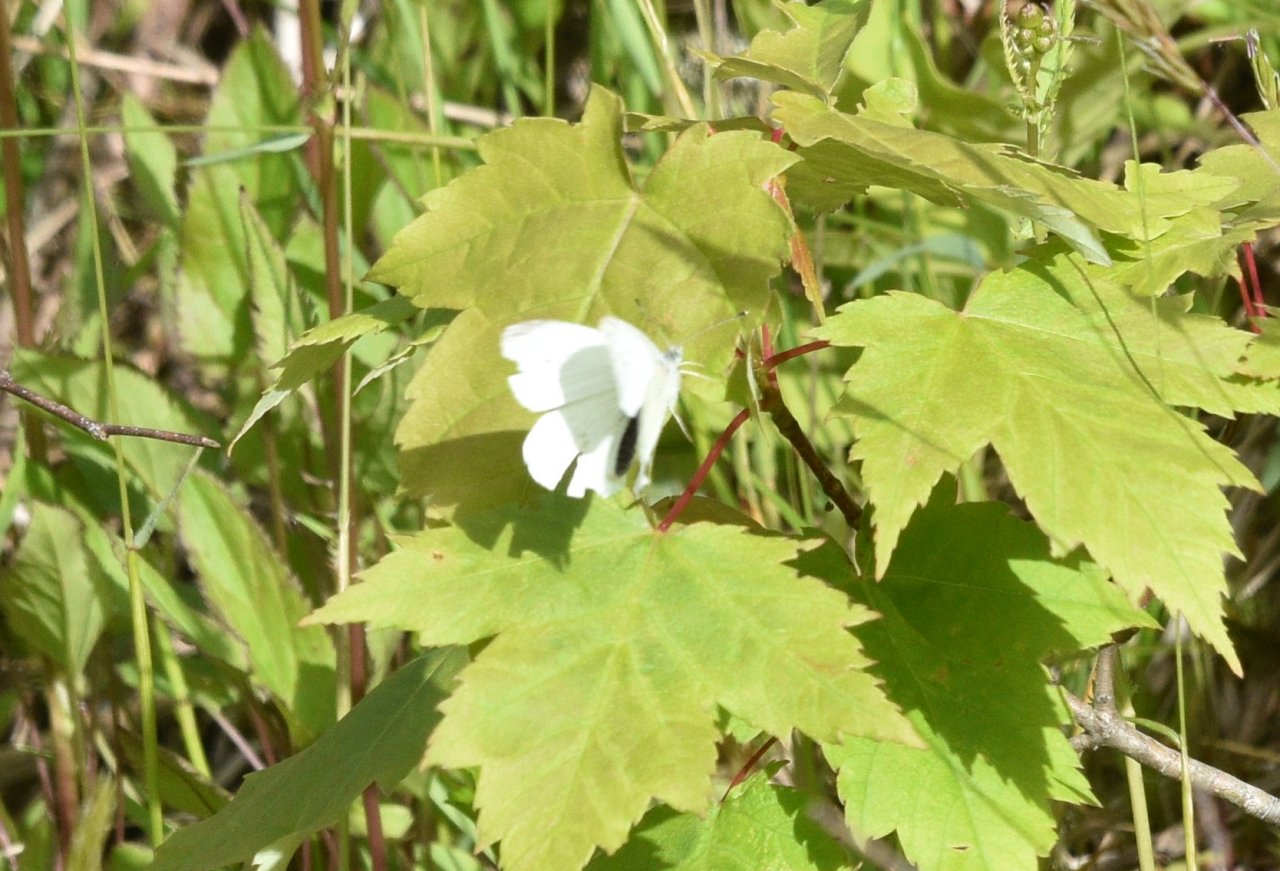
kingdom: Animalia
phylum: Arthropoda
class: Insecta
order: Lepidoptera
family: Pieridae
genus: Pieris
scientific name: Pieris rapae
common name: Cabbage White
